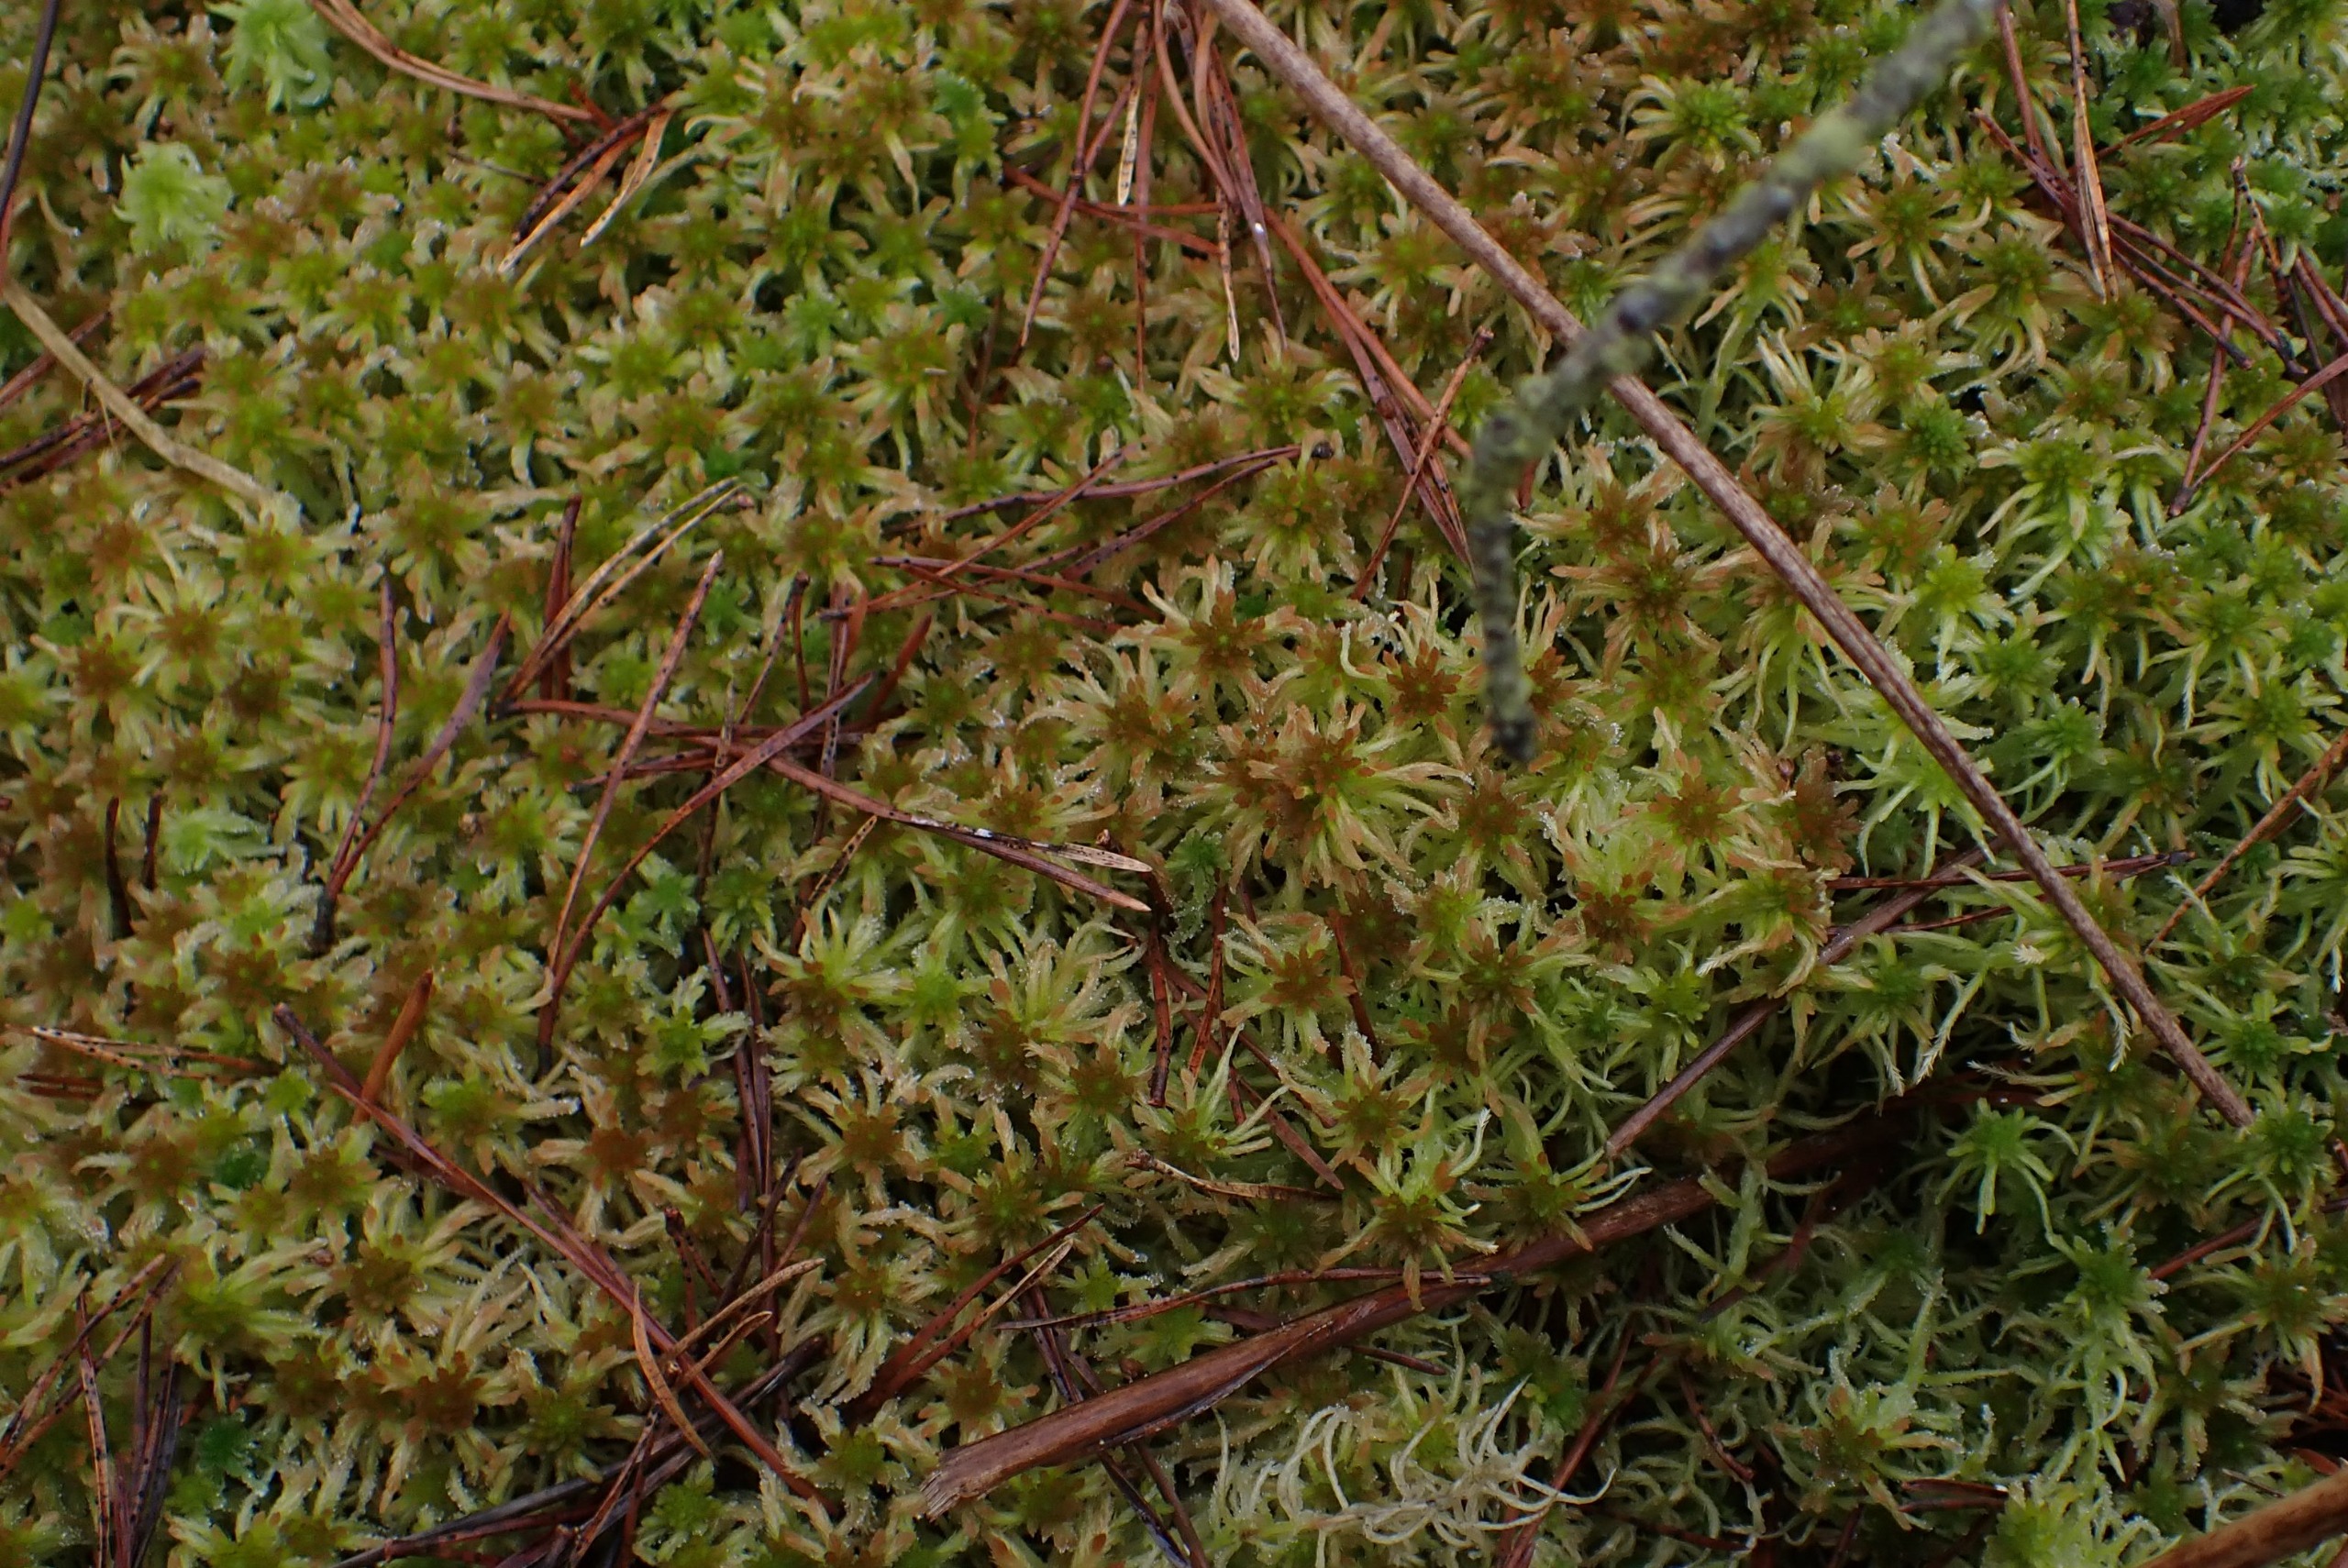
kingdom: Plantae
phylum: Bryophyta
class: Sphagnopsida
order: Sphagnales
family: Sphagnaceae
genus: Sphagnum
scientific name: Sphagnum fallax
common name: Brodspids-tørvemos
